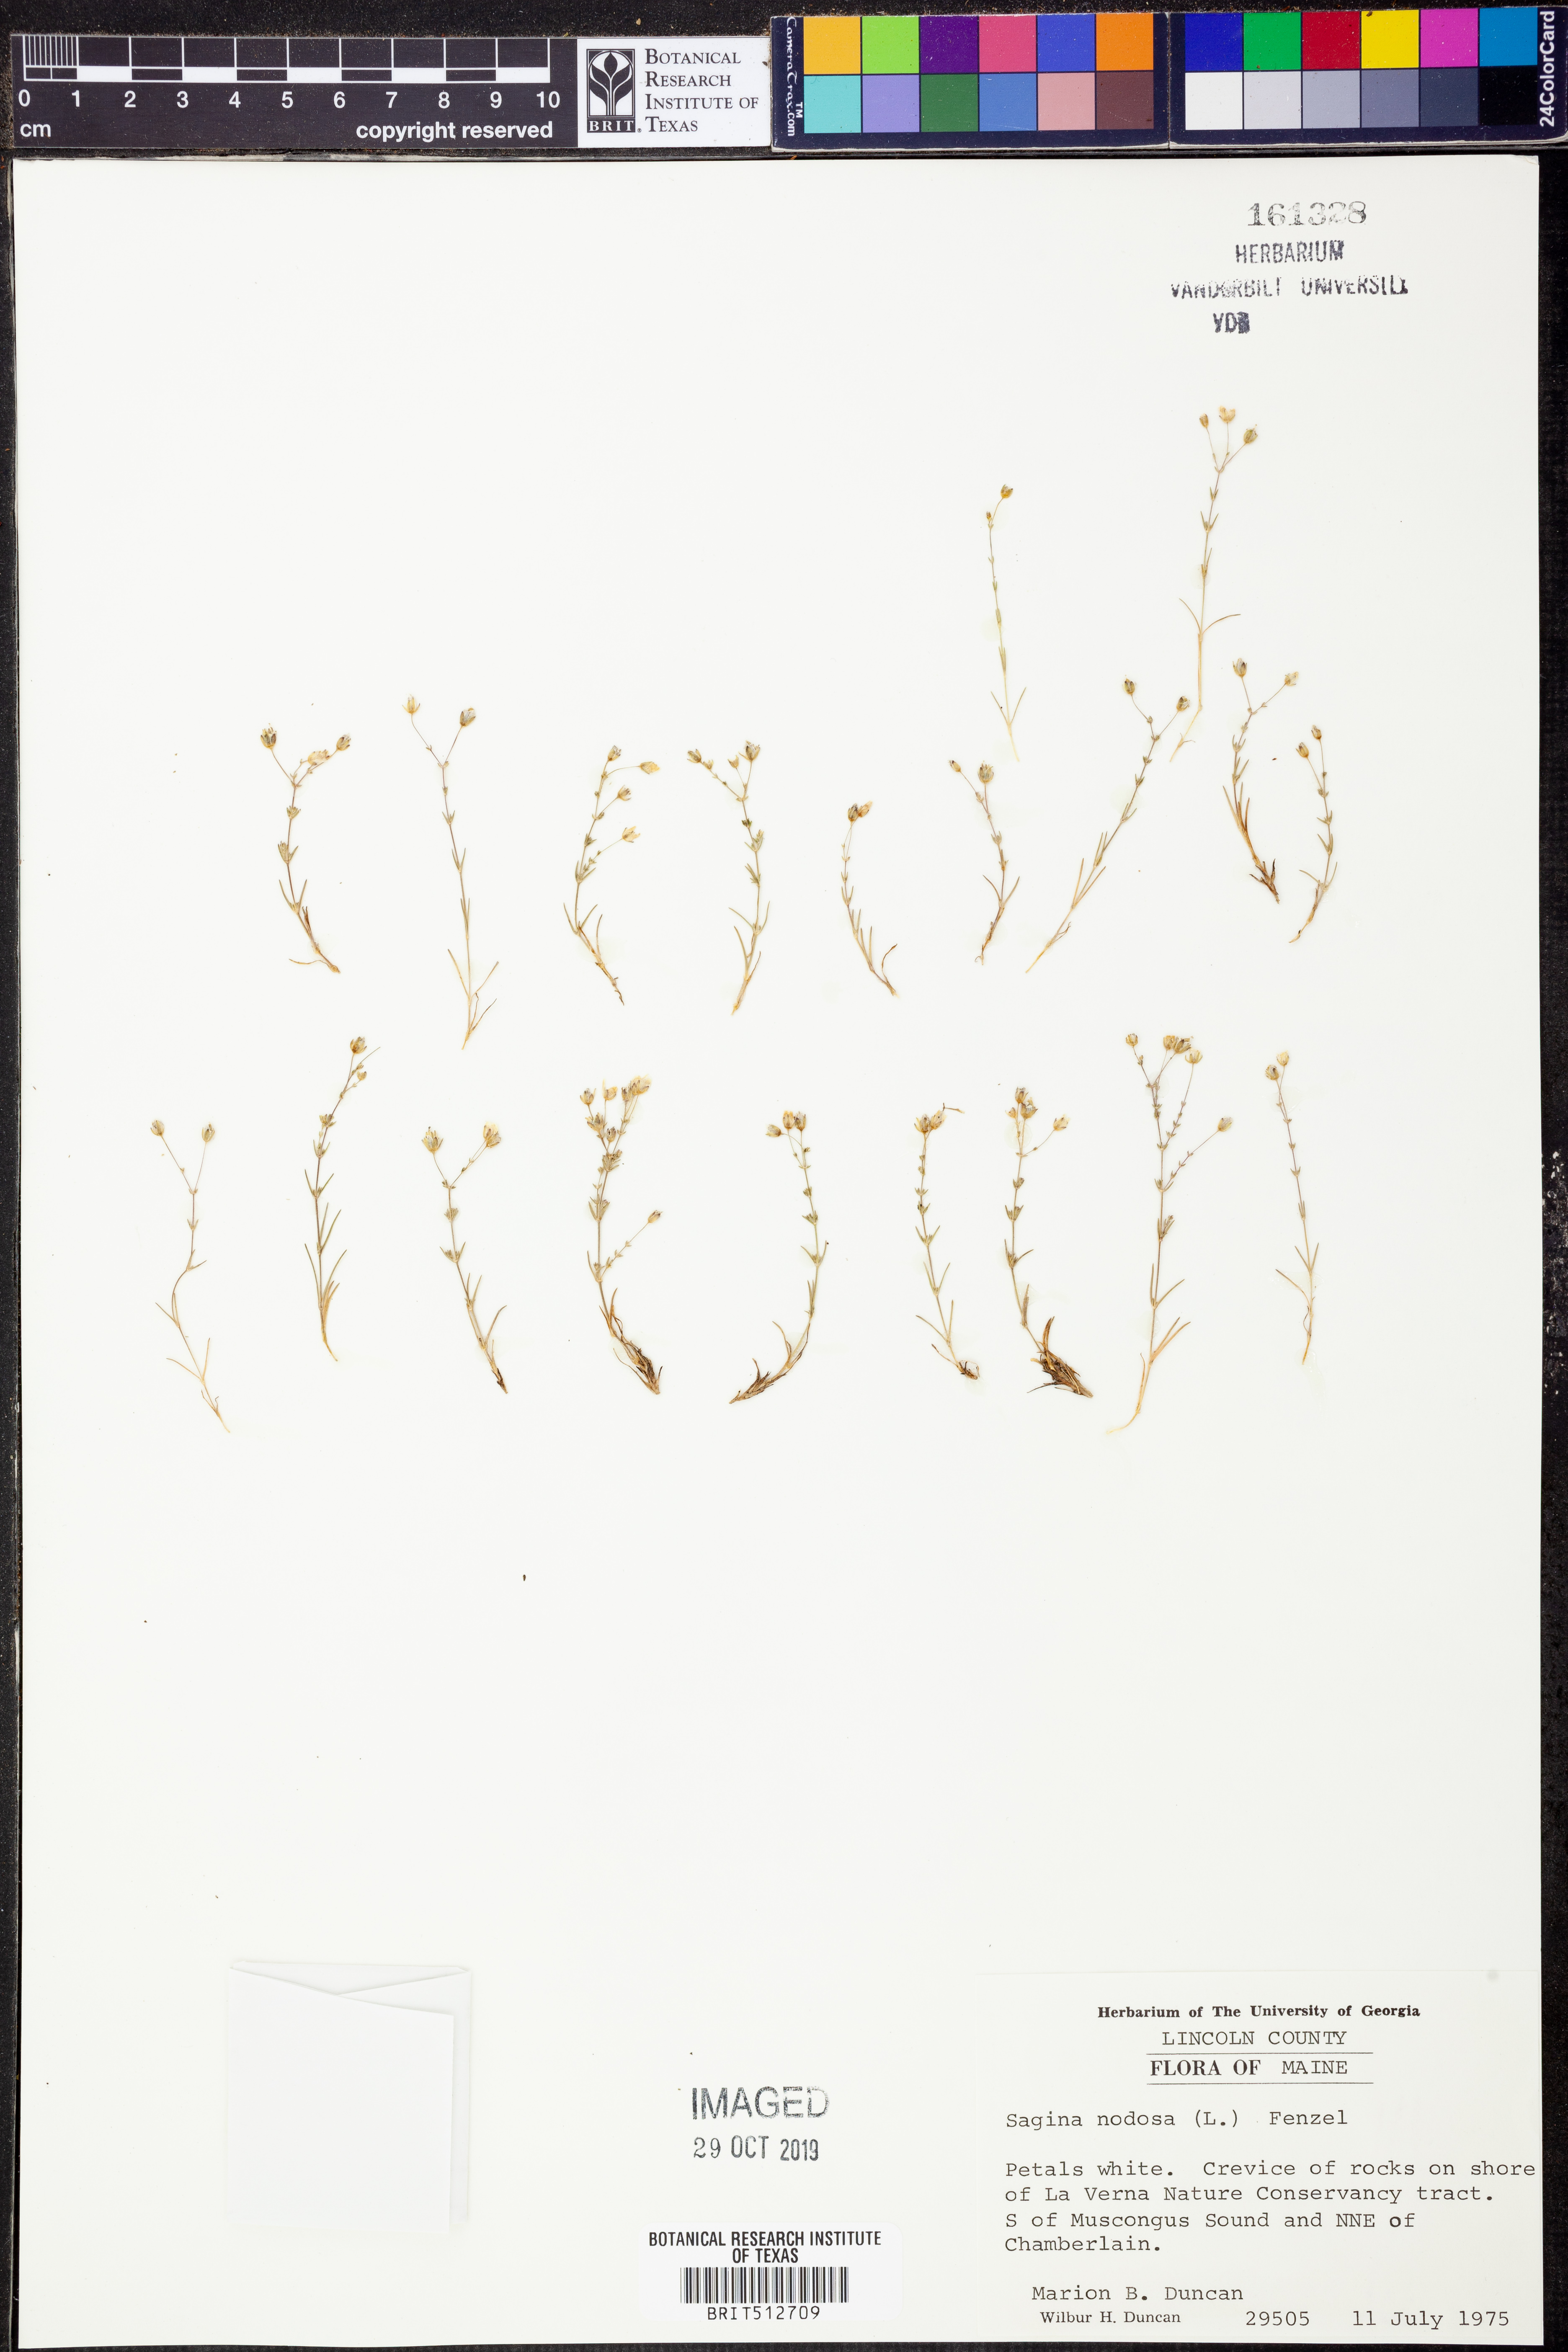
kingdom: Plantae
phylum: Tracheophyta
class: Magnoliopsida
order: Caryophyllales
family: Caryophyllaceae
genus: Sagina
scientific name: Sagina nodosa
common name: Knotted pearlwort
